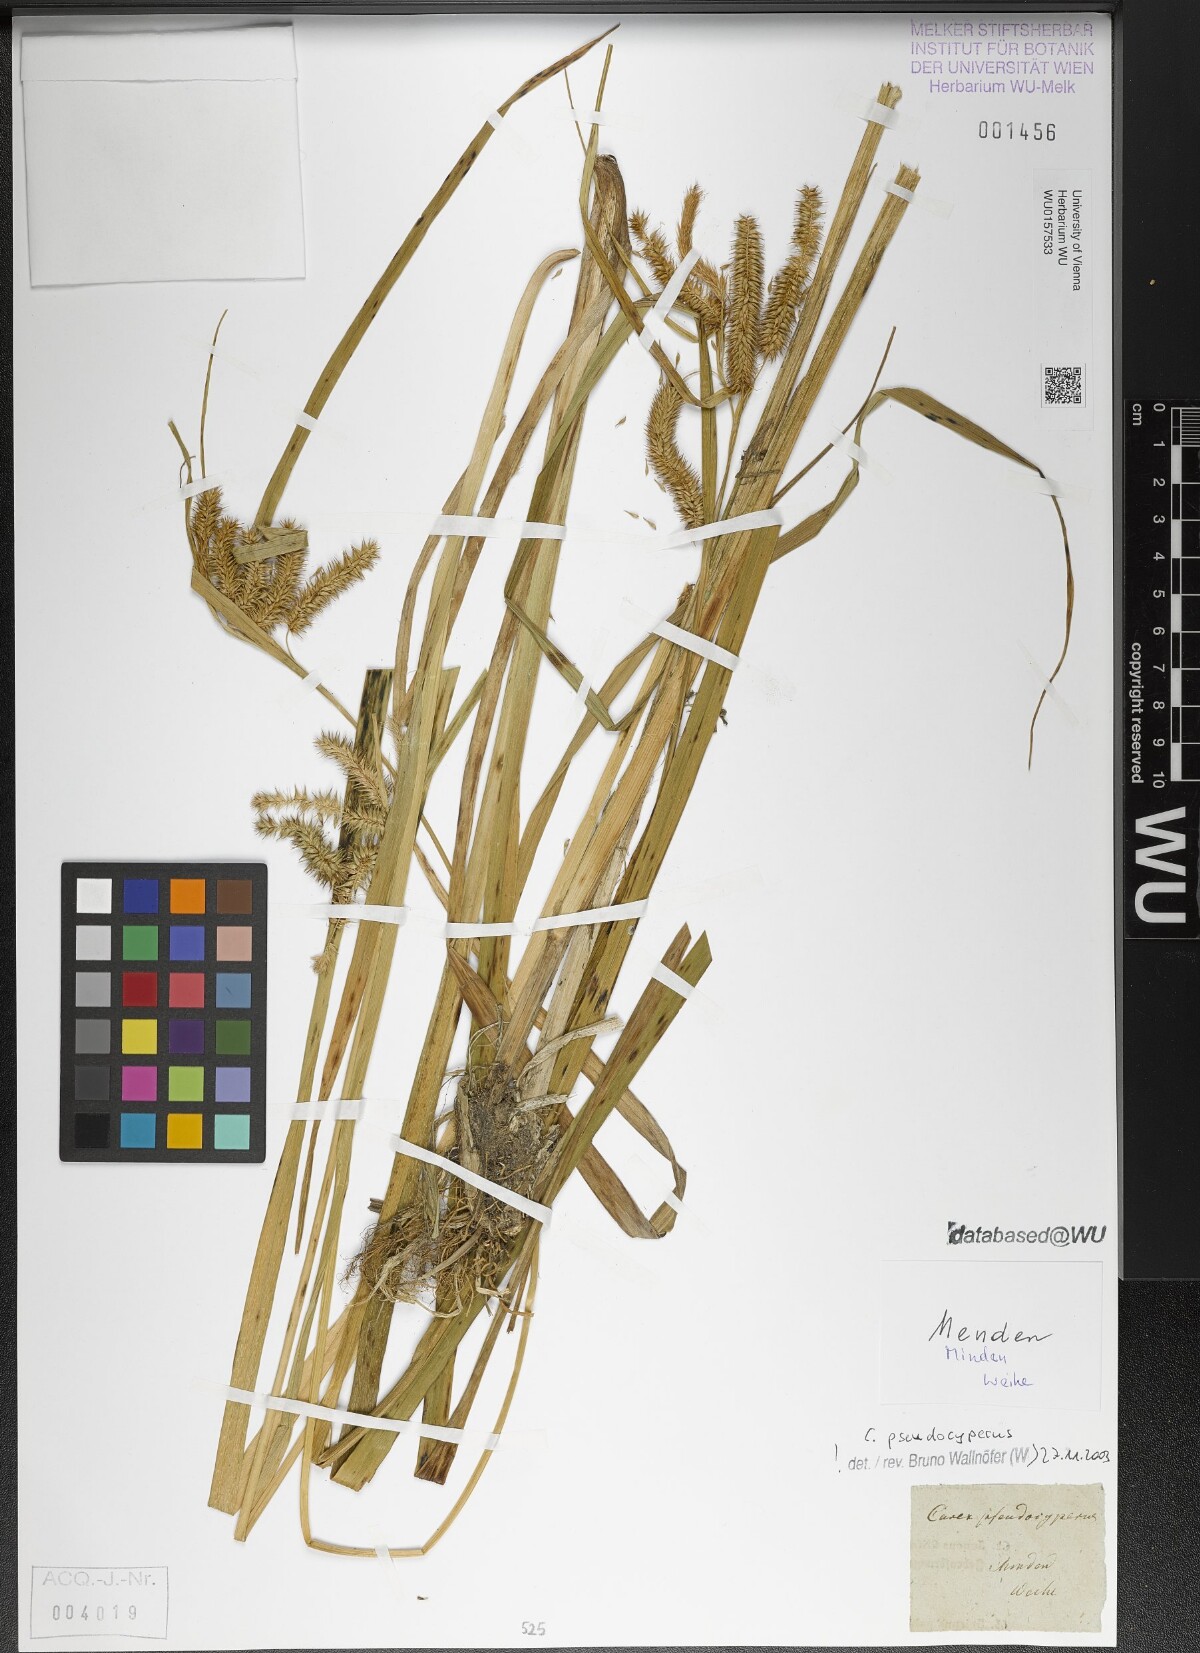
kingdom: Plantae
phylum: Tracheophyta
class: Liliopsida
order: Poales
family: Cyperaceae
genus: Carex
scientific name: Carex pseudocyperus
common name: Cyperus sedge
